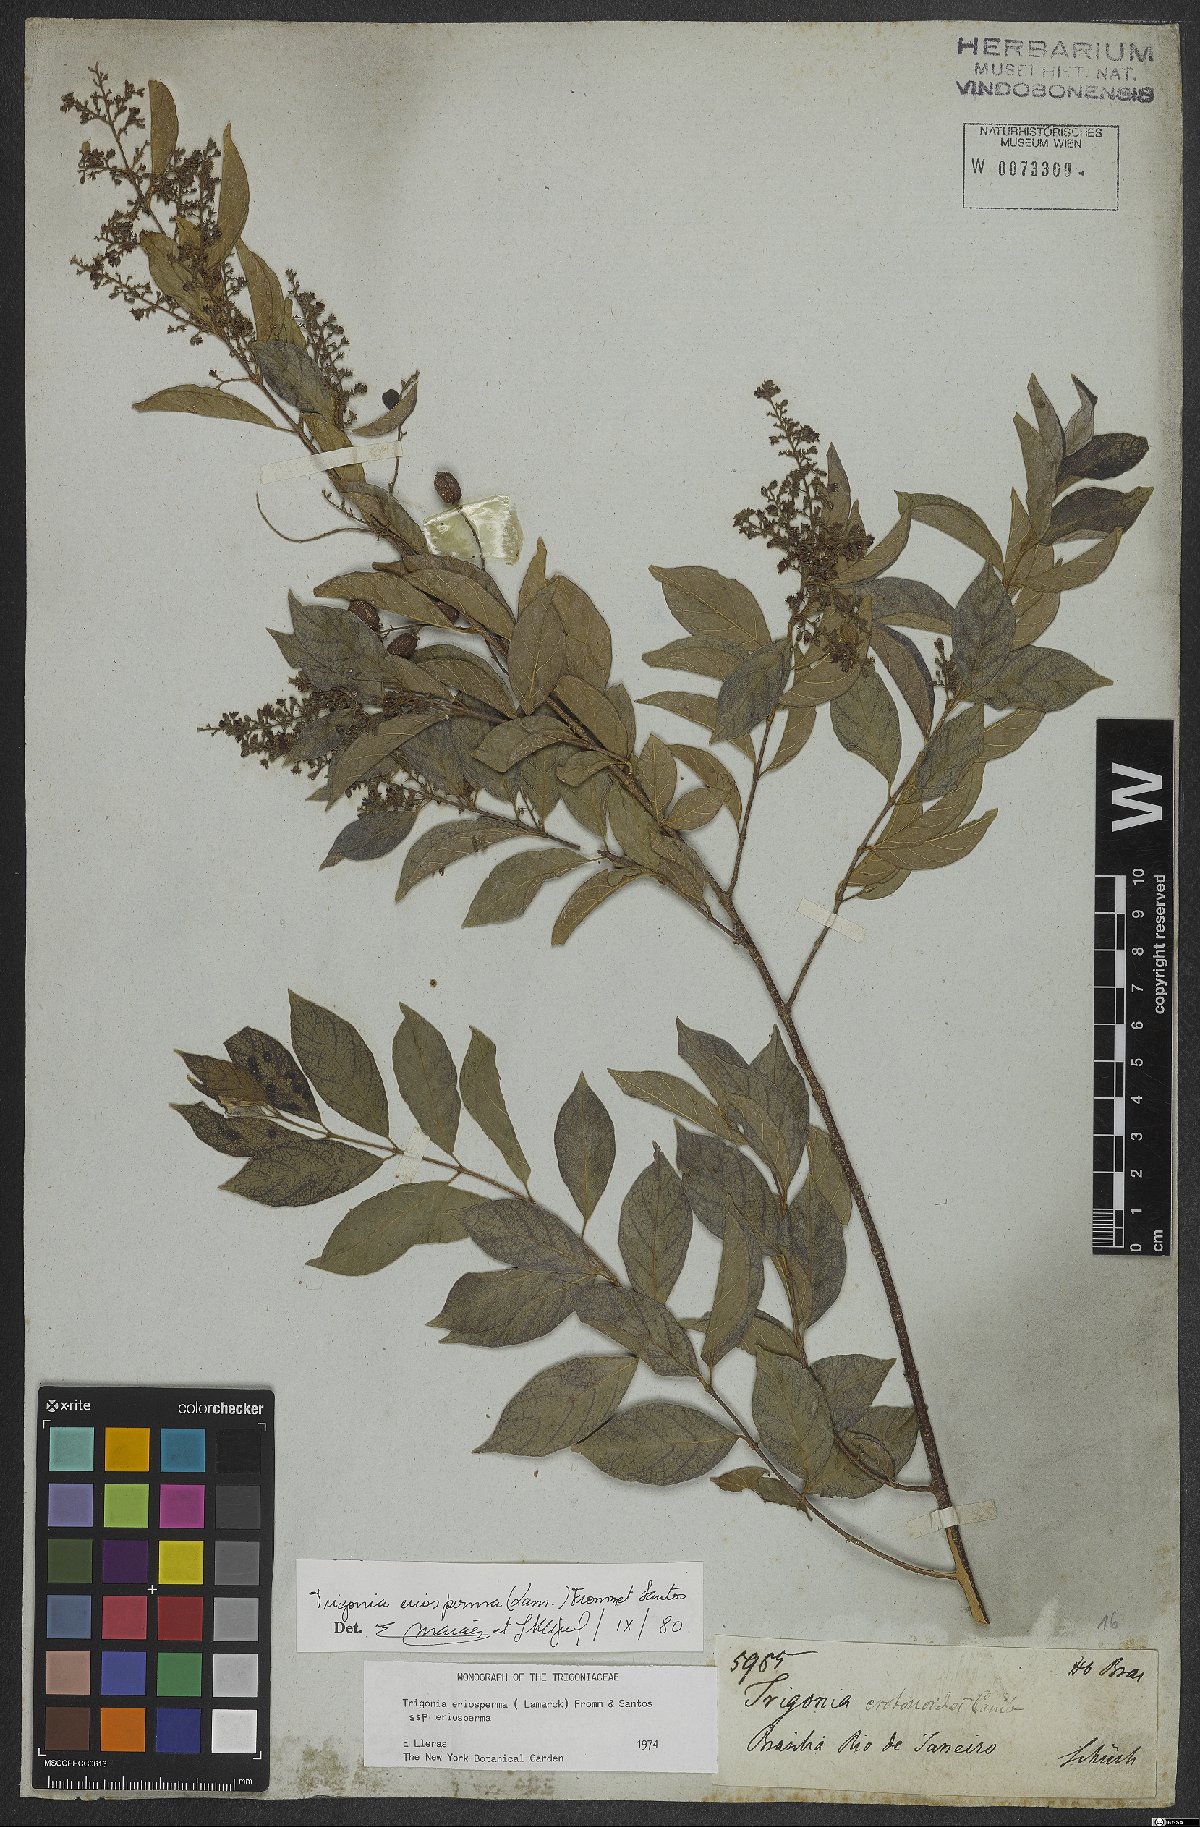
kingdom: Plantae
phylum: Tracheophyta
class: Magnoliopsida
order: Malpighiales
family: Trigoniaceae
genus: Trigonia
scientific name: Trigonia eriosperma
